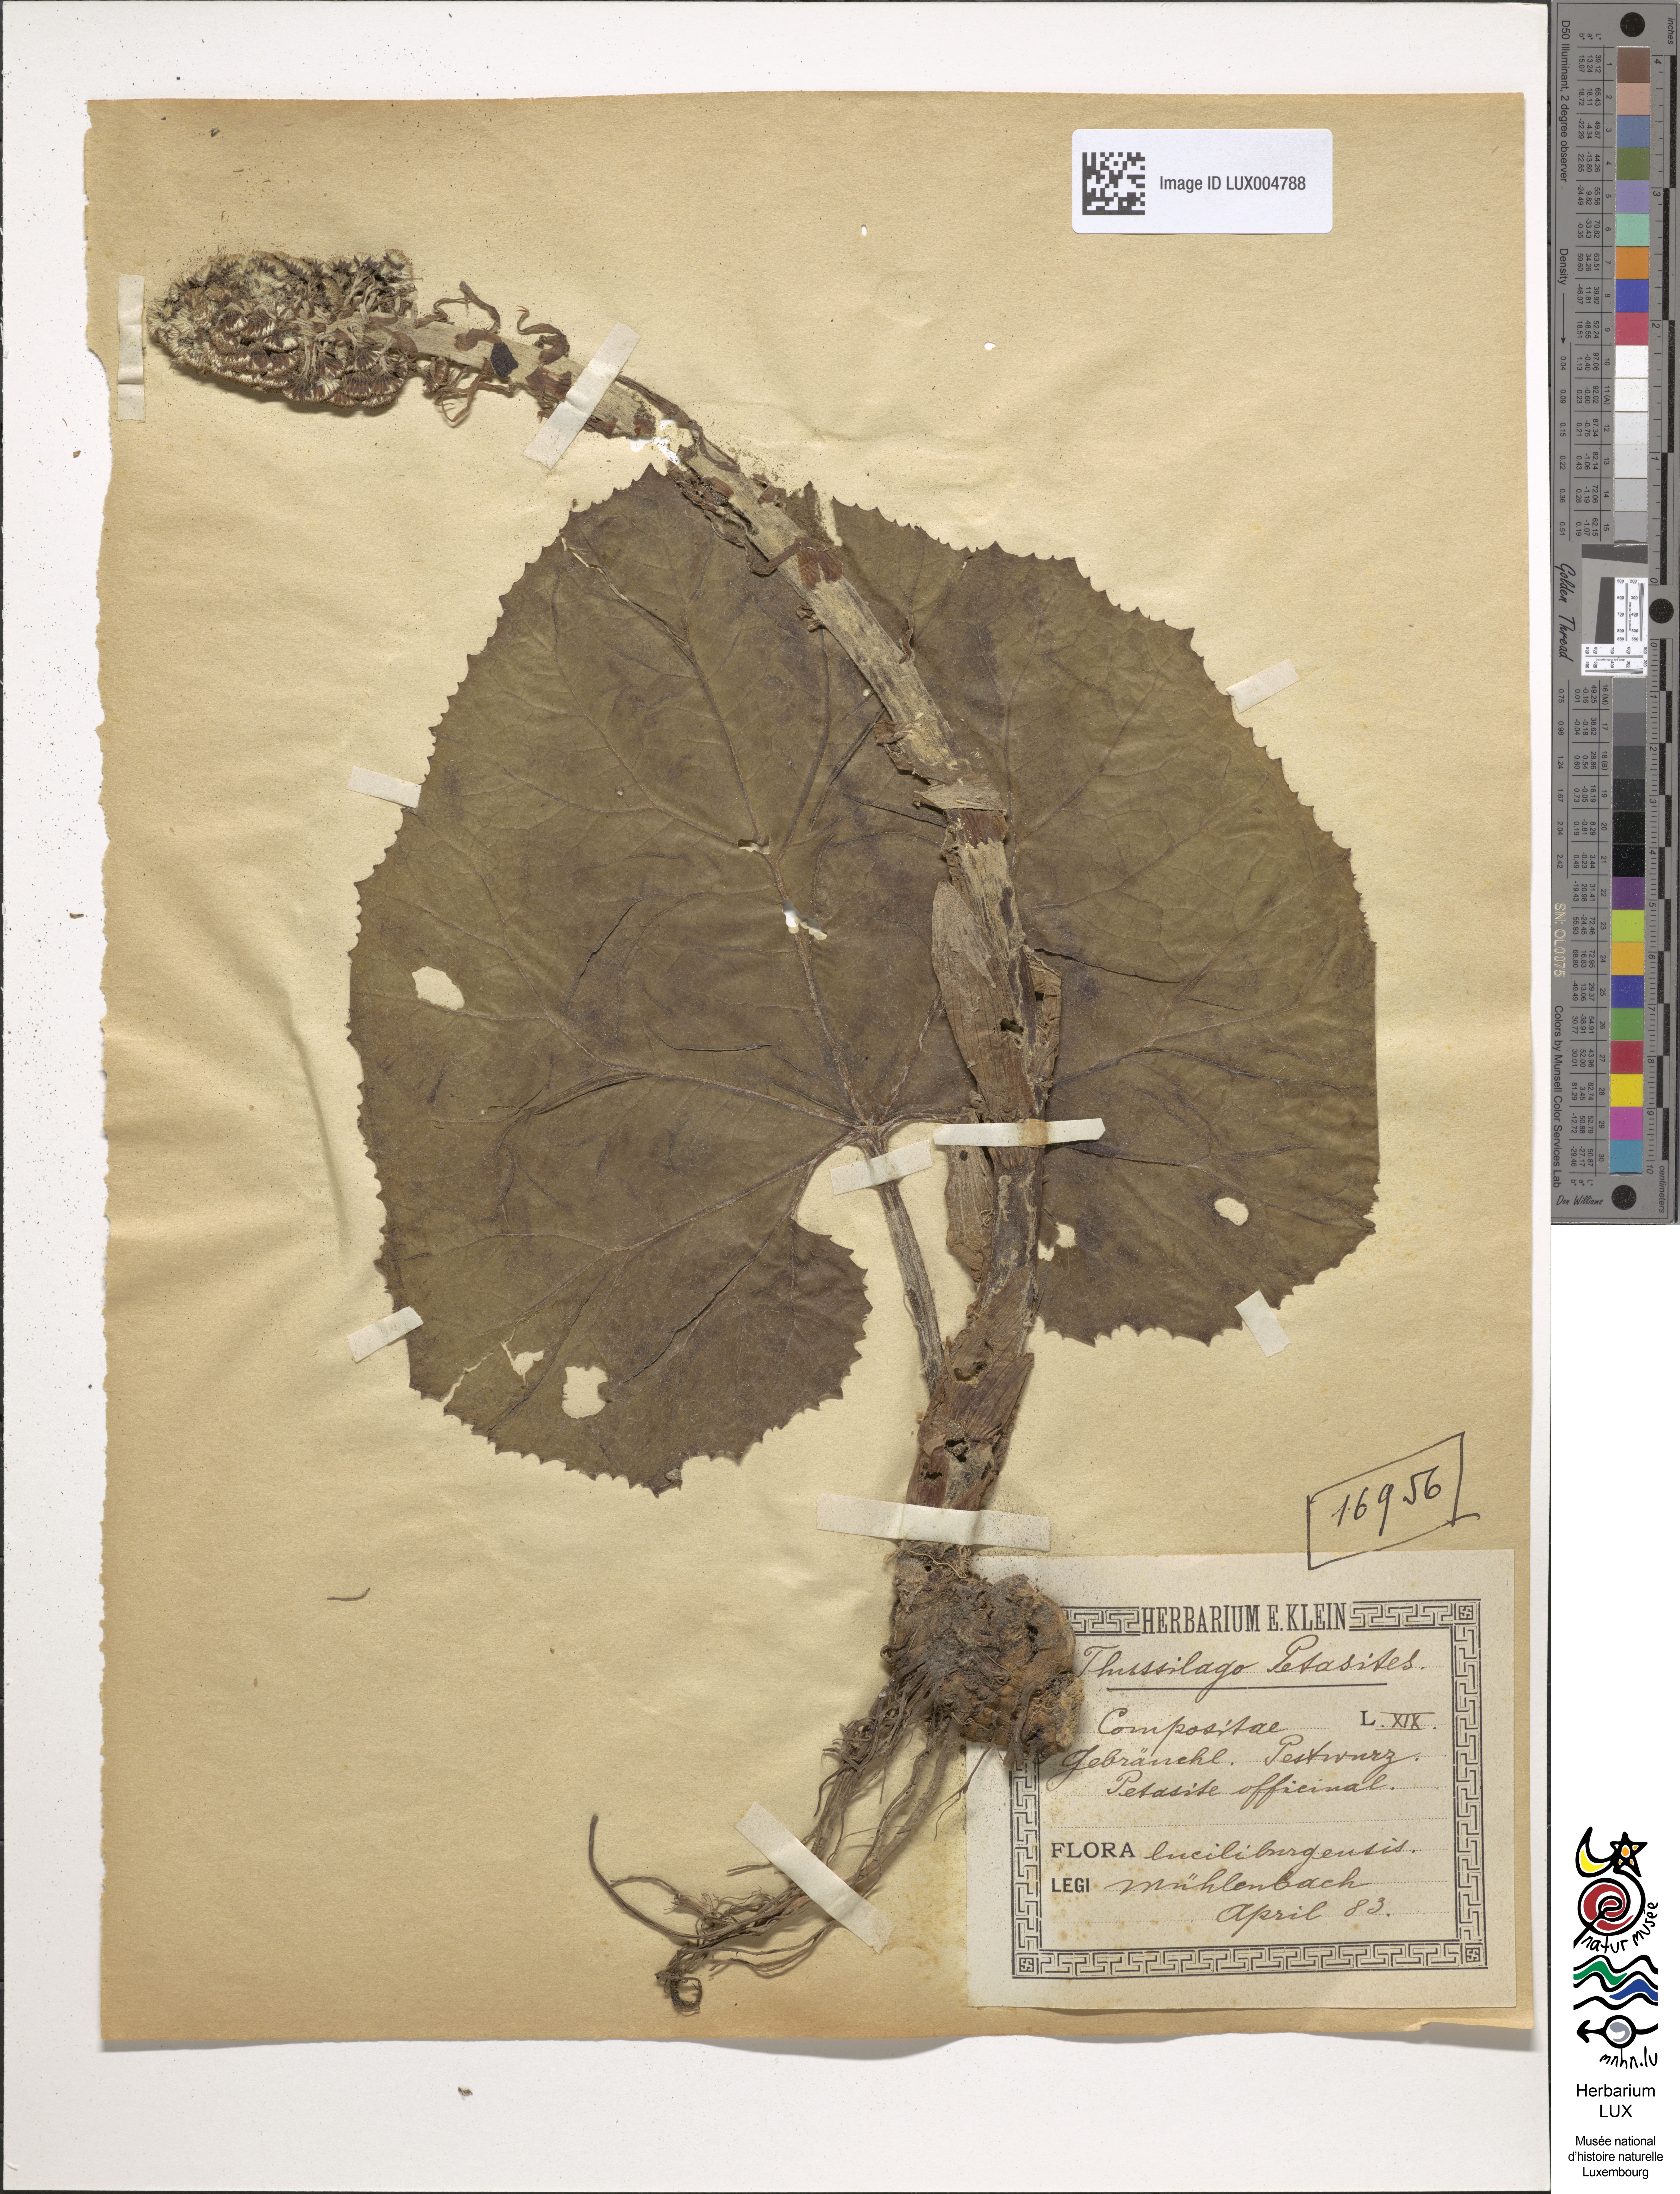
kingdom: Plantae
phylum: Tracheophyta
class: Magnoliopsida
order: Asterales
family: Asteraceae
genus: Petasites
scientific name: Petasites hybridus
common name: Butterbur
